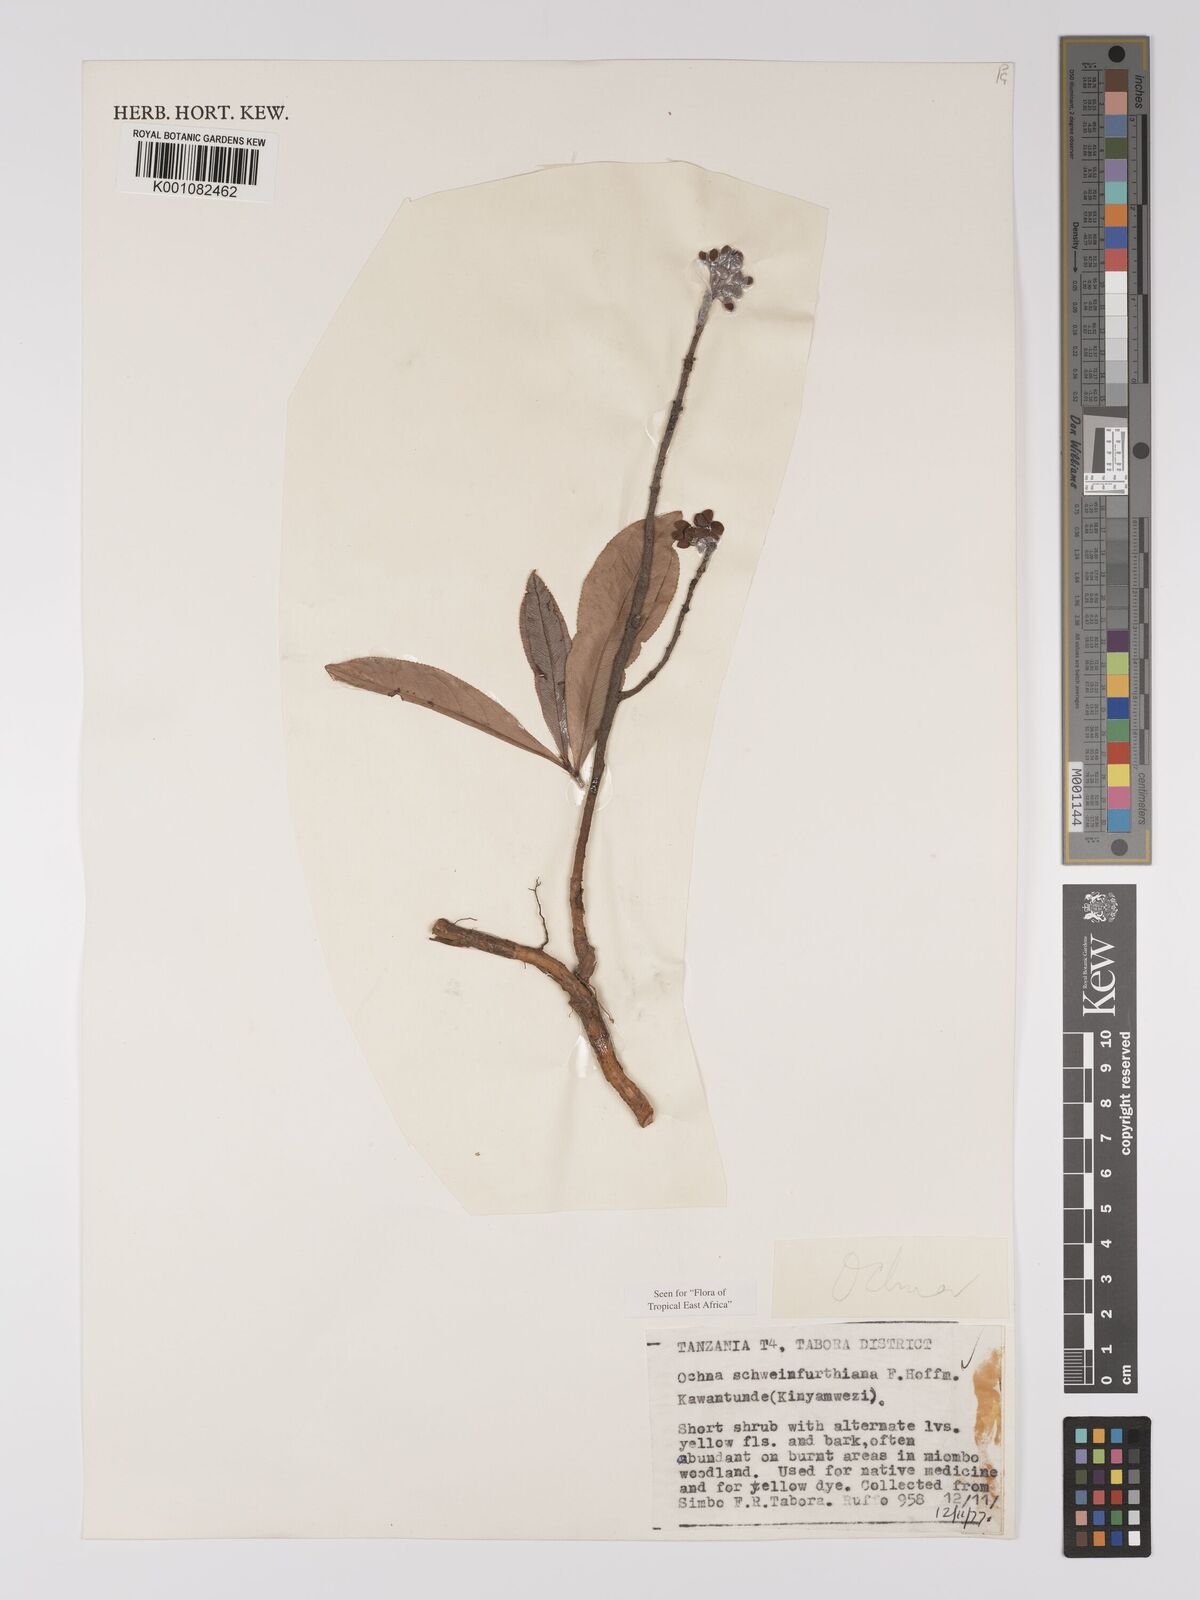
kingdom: Plantae
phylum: Tracheophyta
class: Magnoliopsida
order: Malpighiales
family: Ochnaceae
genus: Ochna
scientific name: Ochna schweinfurthiana
